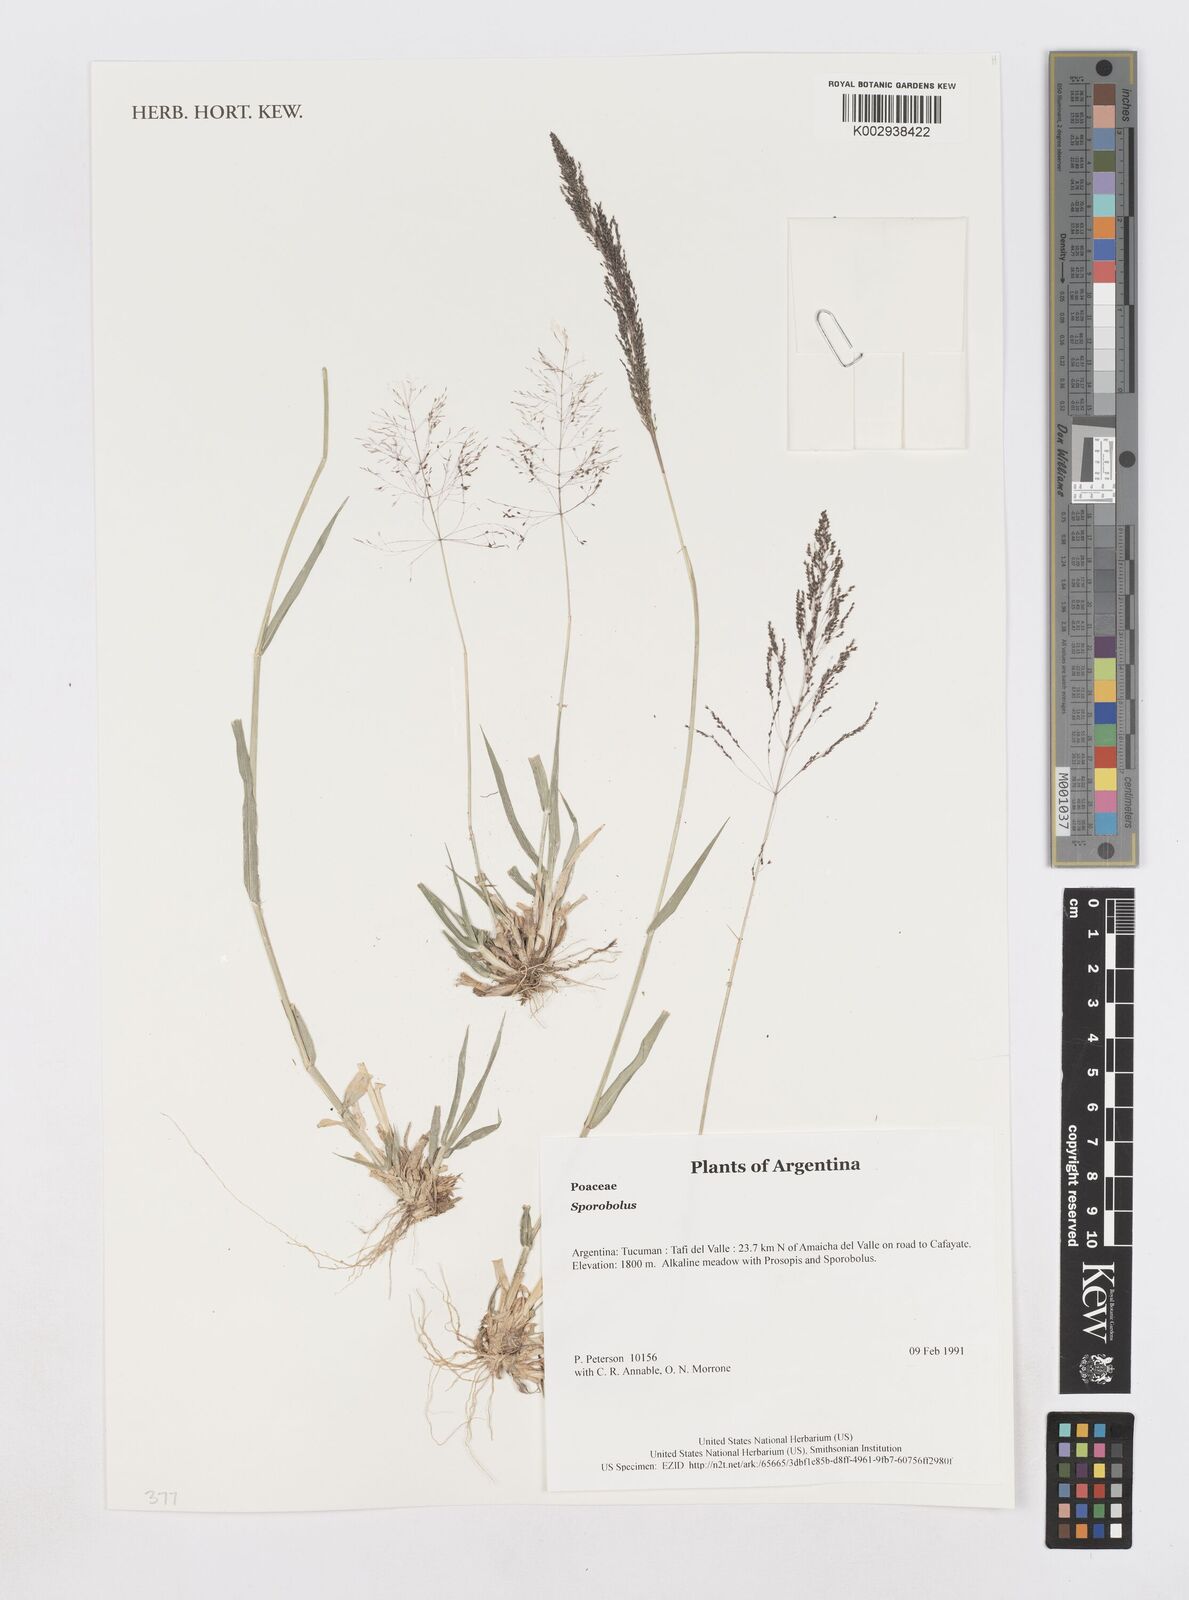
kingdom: Plantae
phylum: Tracheophyta
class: Liliopsida
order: Poales
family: Poaceae
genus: Sporobolus
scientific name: Sporobolus
